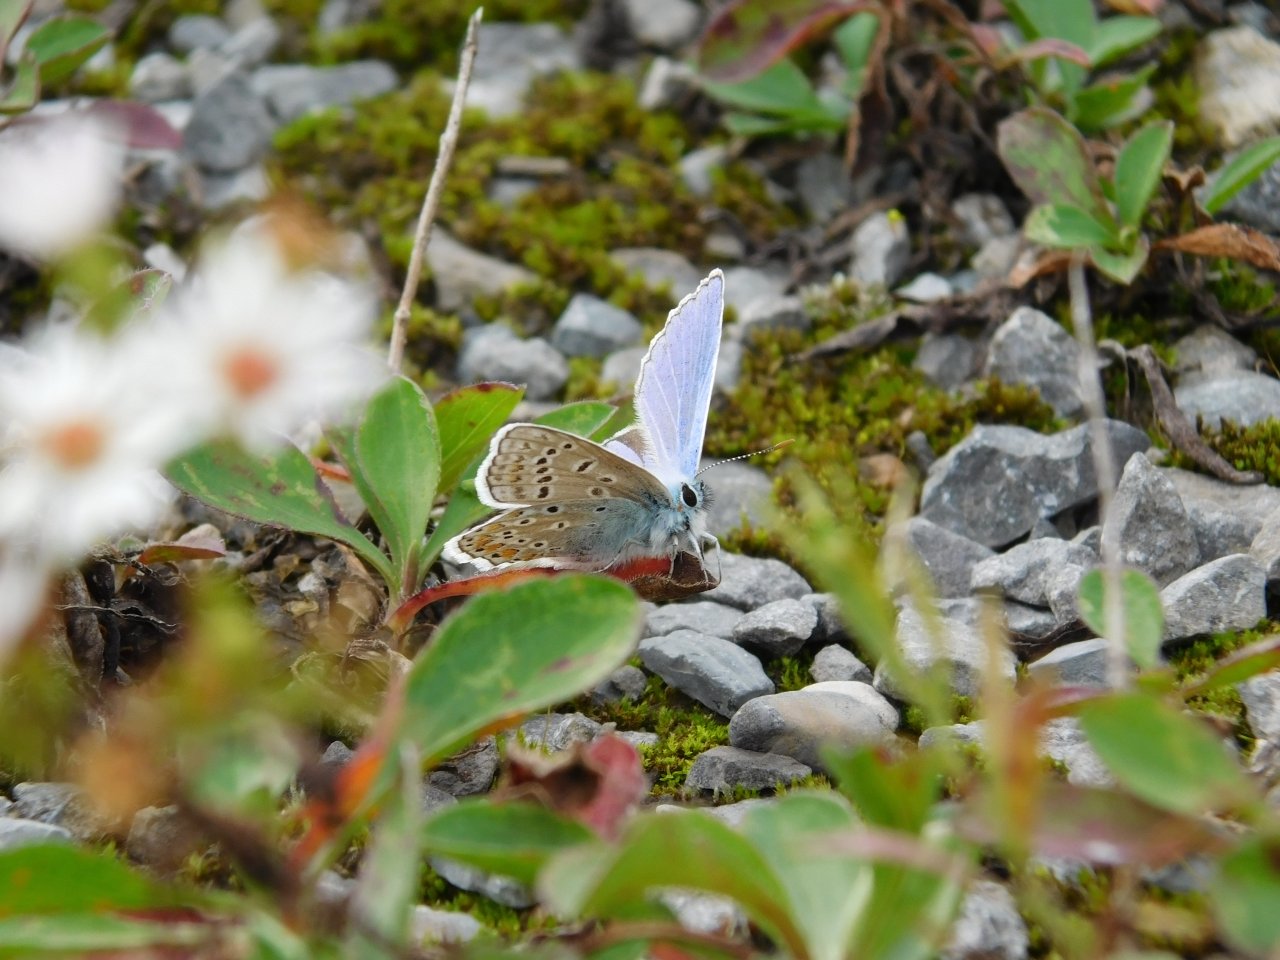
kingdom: Animalia
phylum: Arthropoda
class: Insecta
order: Lepidoptera
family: Lycaenidae
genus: Polyommatus
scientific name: Polyommatus icarus
